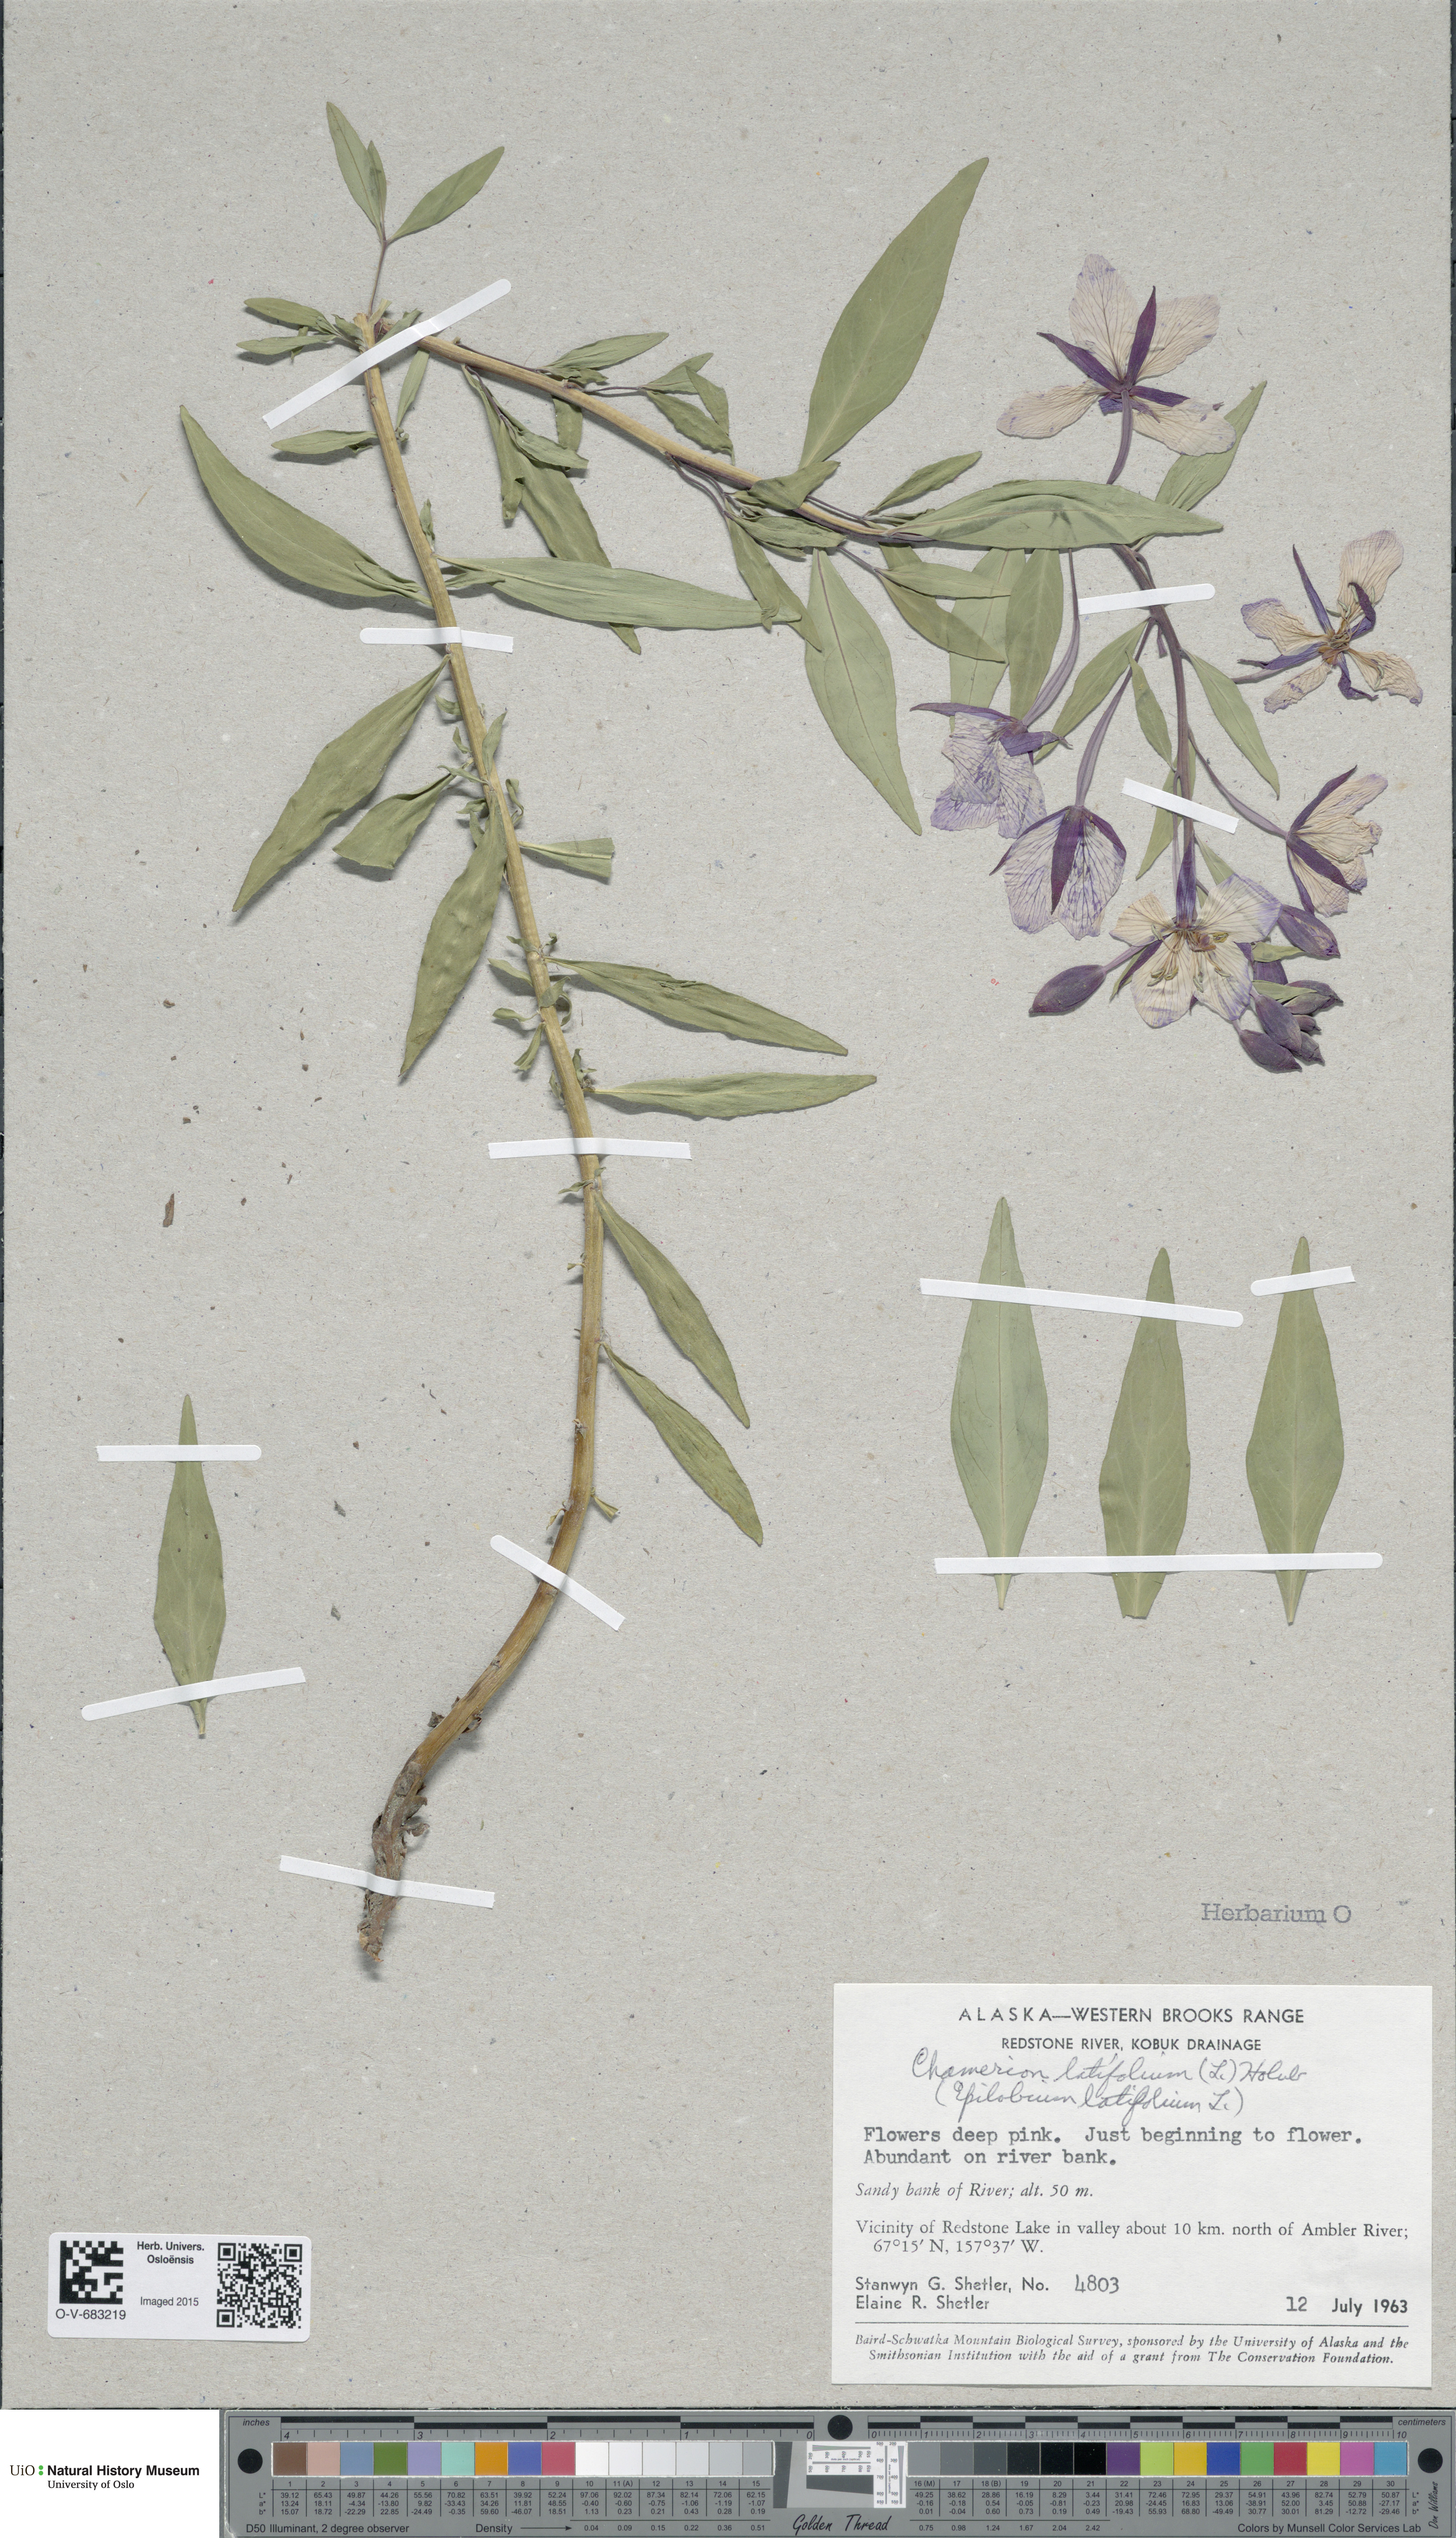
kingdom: Plantae
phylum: Tracheophyta
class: Magnoliopsida
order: Myrtales
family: Onagraceae
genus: Chamaenerion
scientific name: Chamaenerion latifolium
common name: Dwarf fireweed
